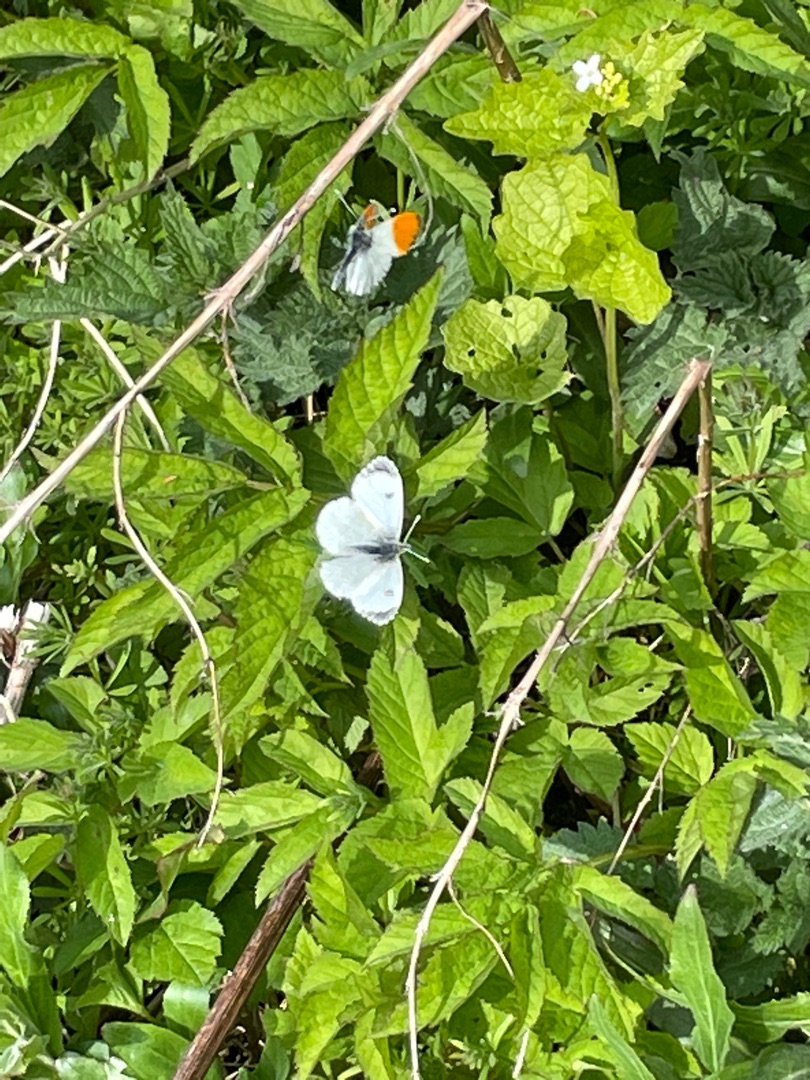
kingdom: Animalia
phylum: Arthropoda
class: Insecta
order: Lepidoptera
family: Pieridae
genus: Anthocharis
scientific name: Anthocharis cardamines
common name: Aurora
